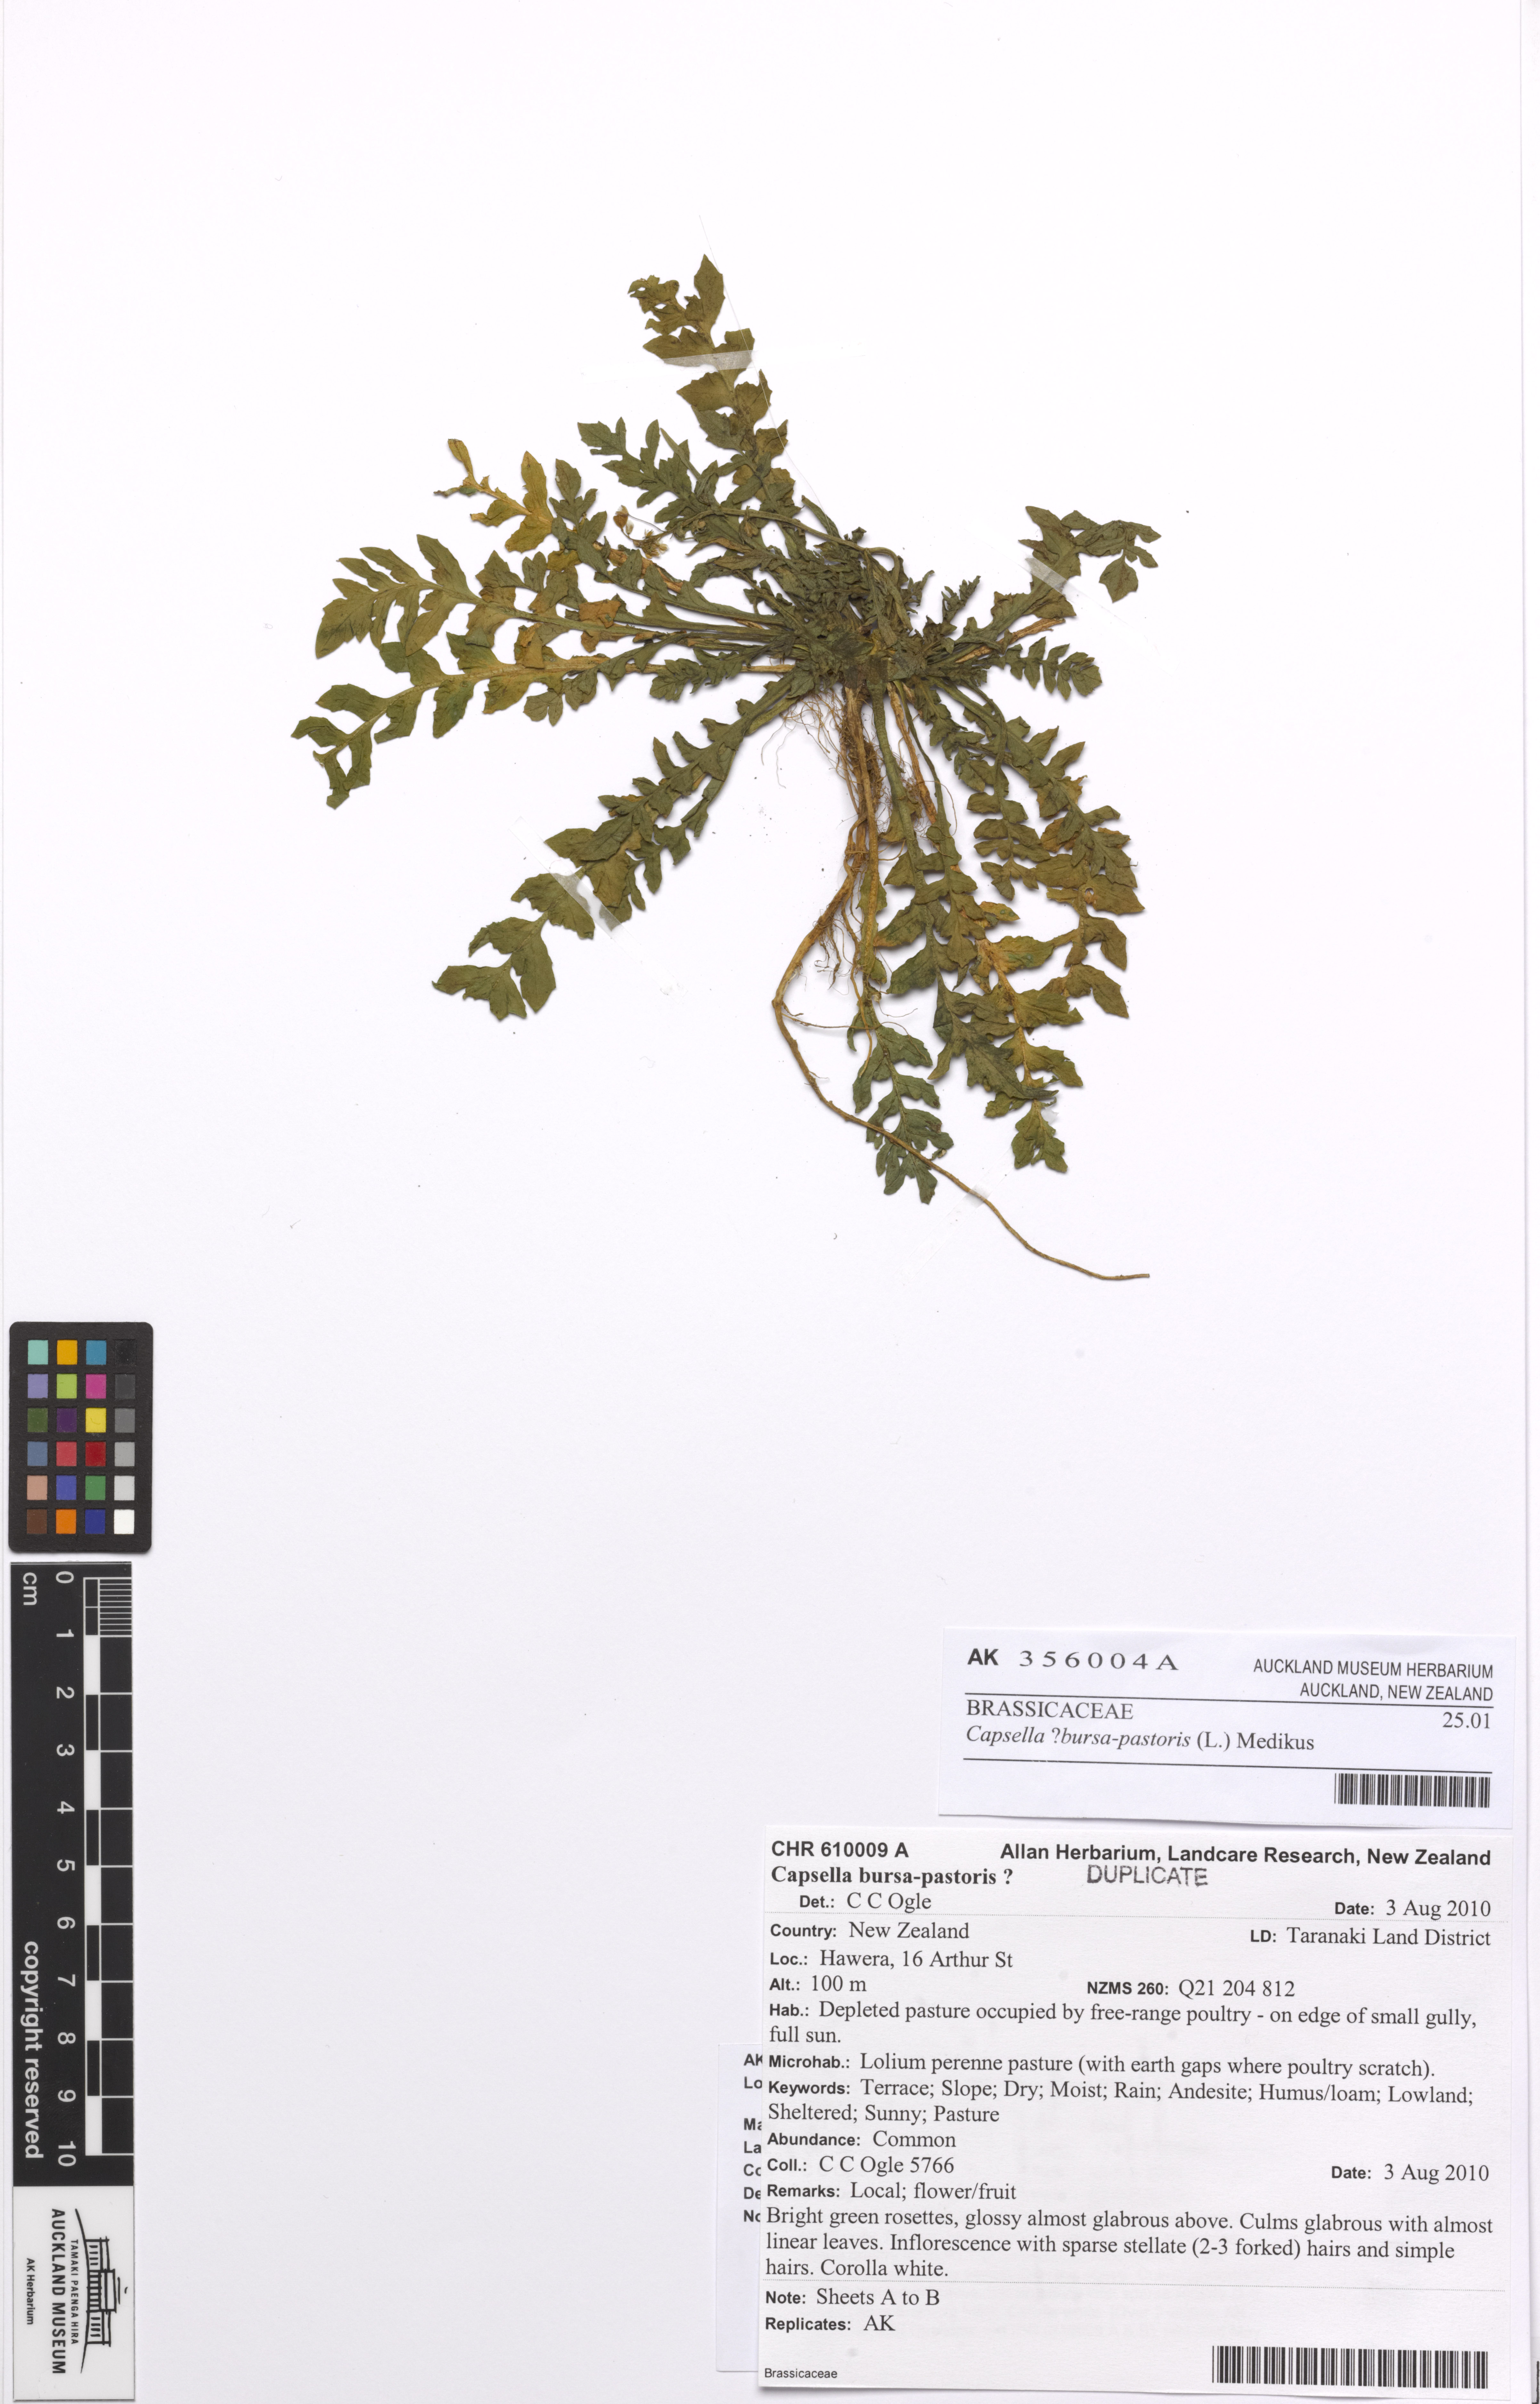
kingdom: Plantae
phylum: Tracheophyta
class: Magnoliopsida
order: Brassicales
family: Brassicaceae
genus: Capsella
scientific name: Capsella bursa-pastoris
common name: Shepherd's purse
